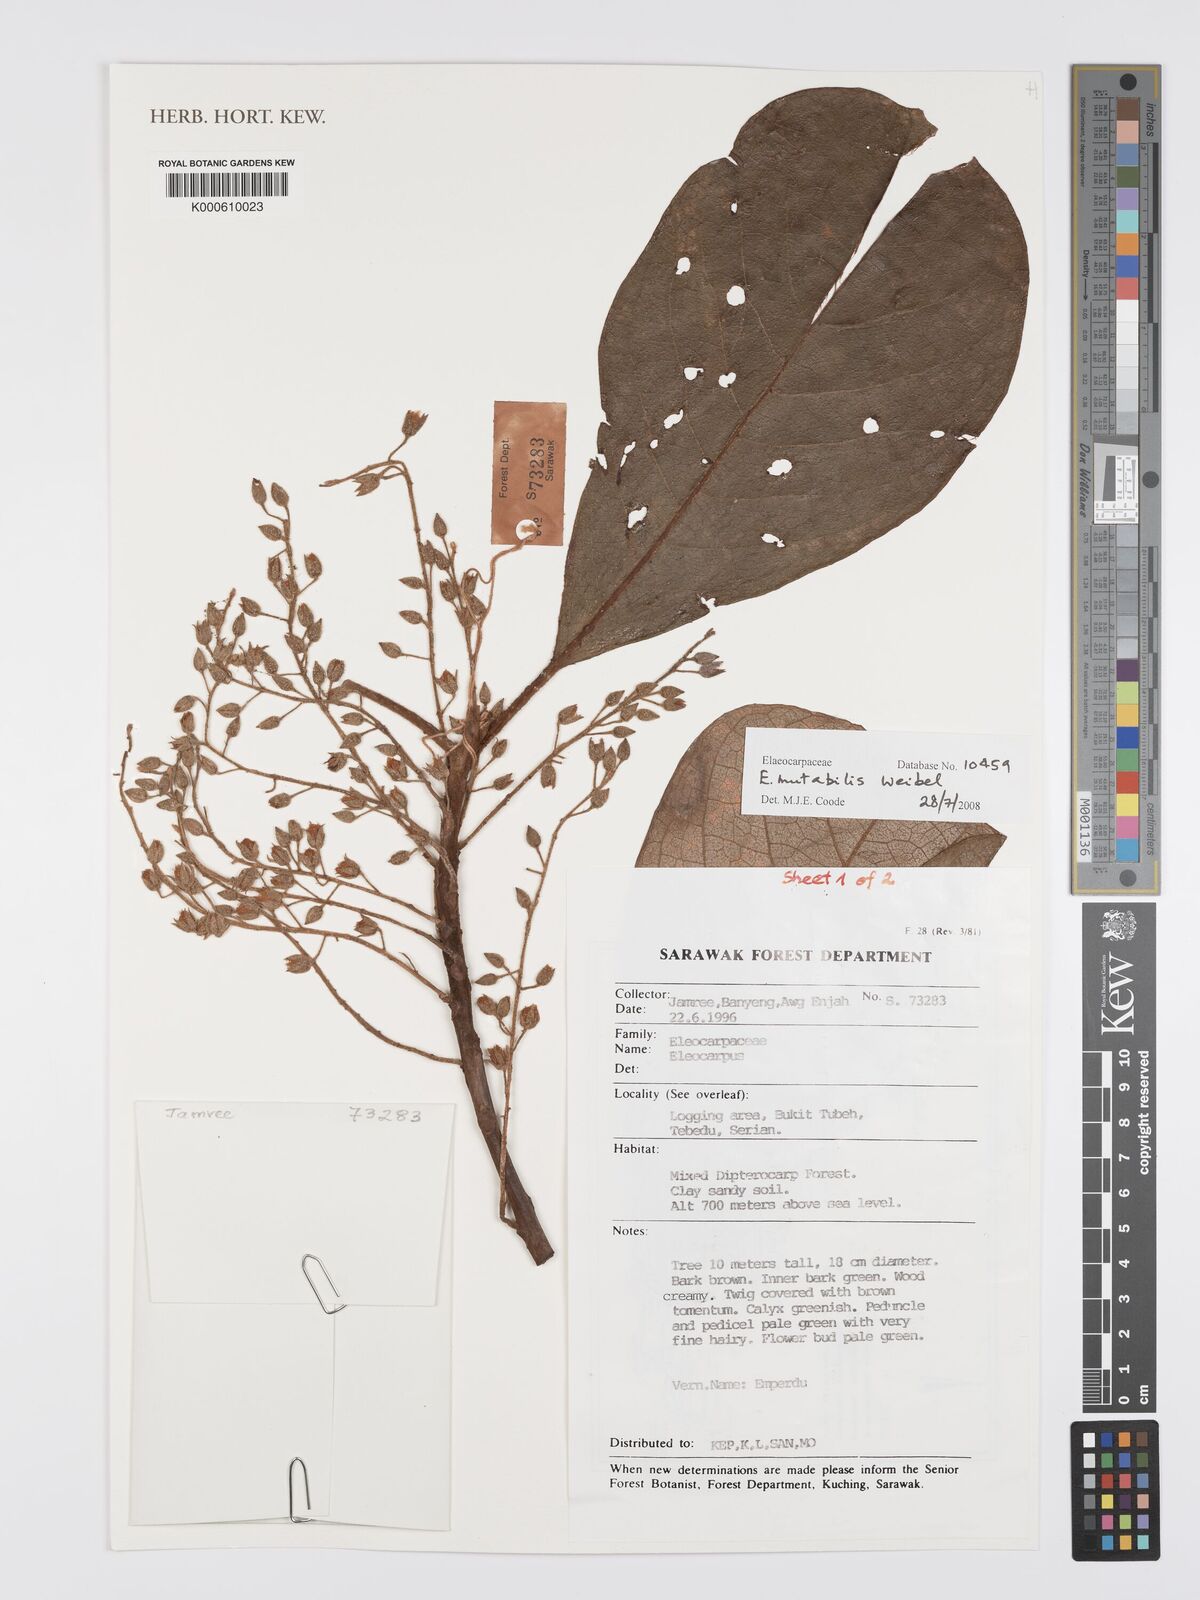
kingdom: Plantae
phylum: Tracheophyta
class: Magnoliopsida
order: Oxalidales
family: Elaeocarpaceae
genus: Elaeocarpus
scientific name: Elaeocarpus mutabilis
